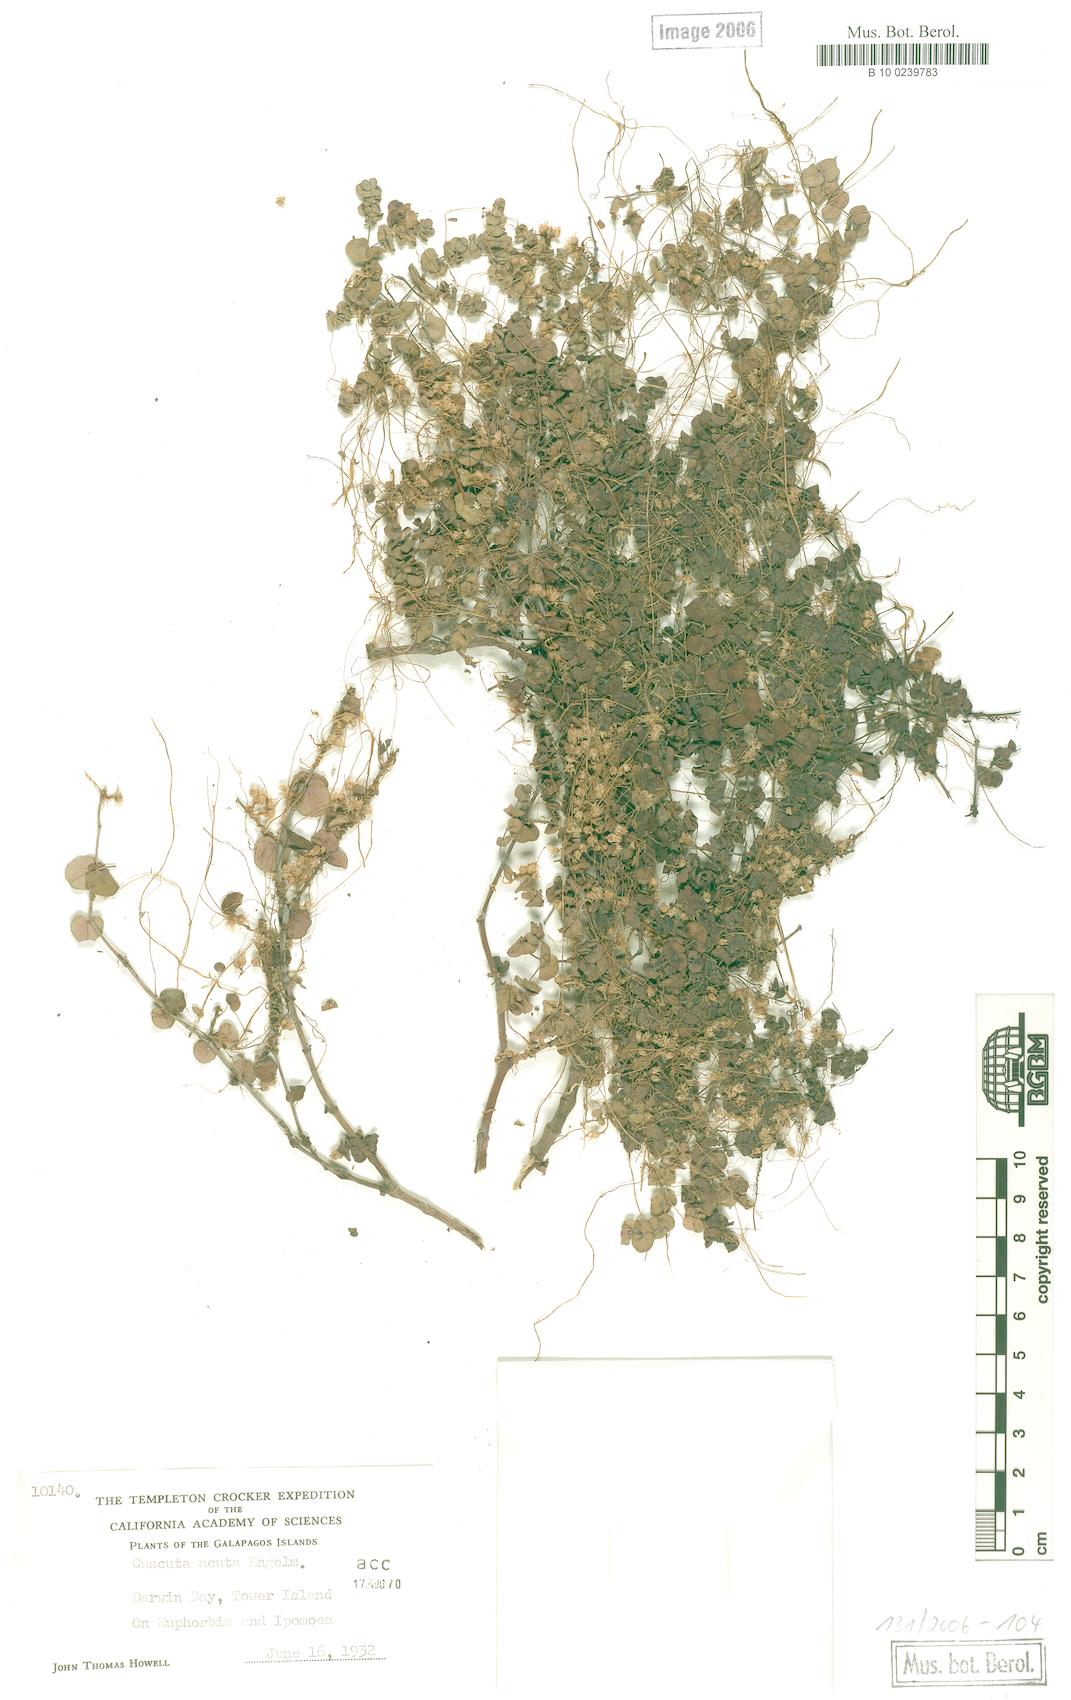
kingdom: Plantae
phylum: Tracheophyta
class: Magnoliopsida
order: Solanales
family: Convolvulaceae
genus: Cuscuta
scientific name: Cuscuta acuta
